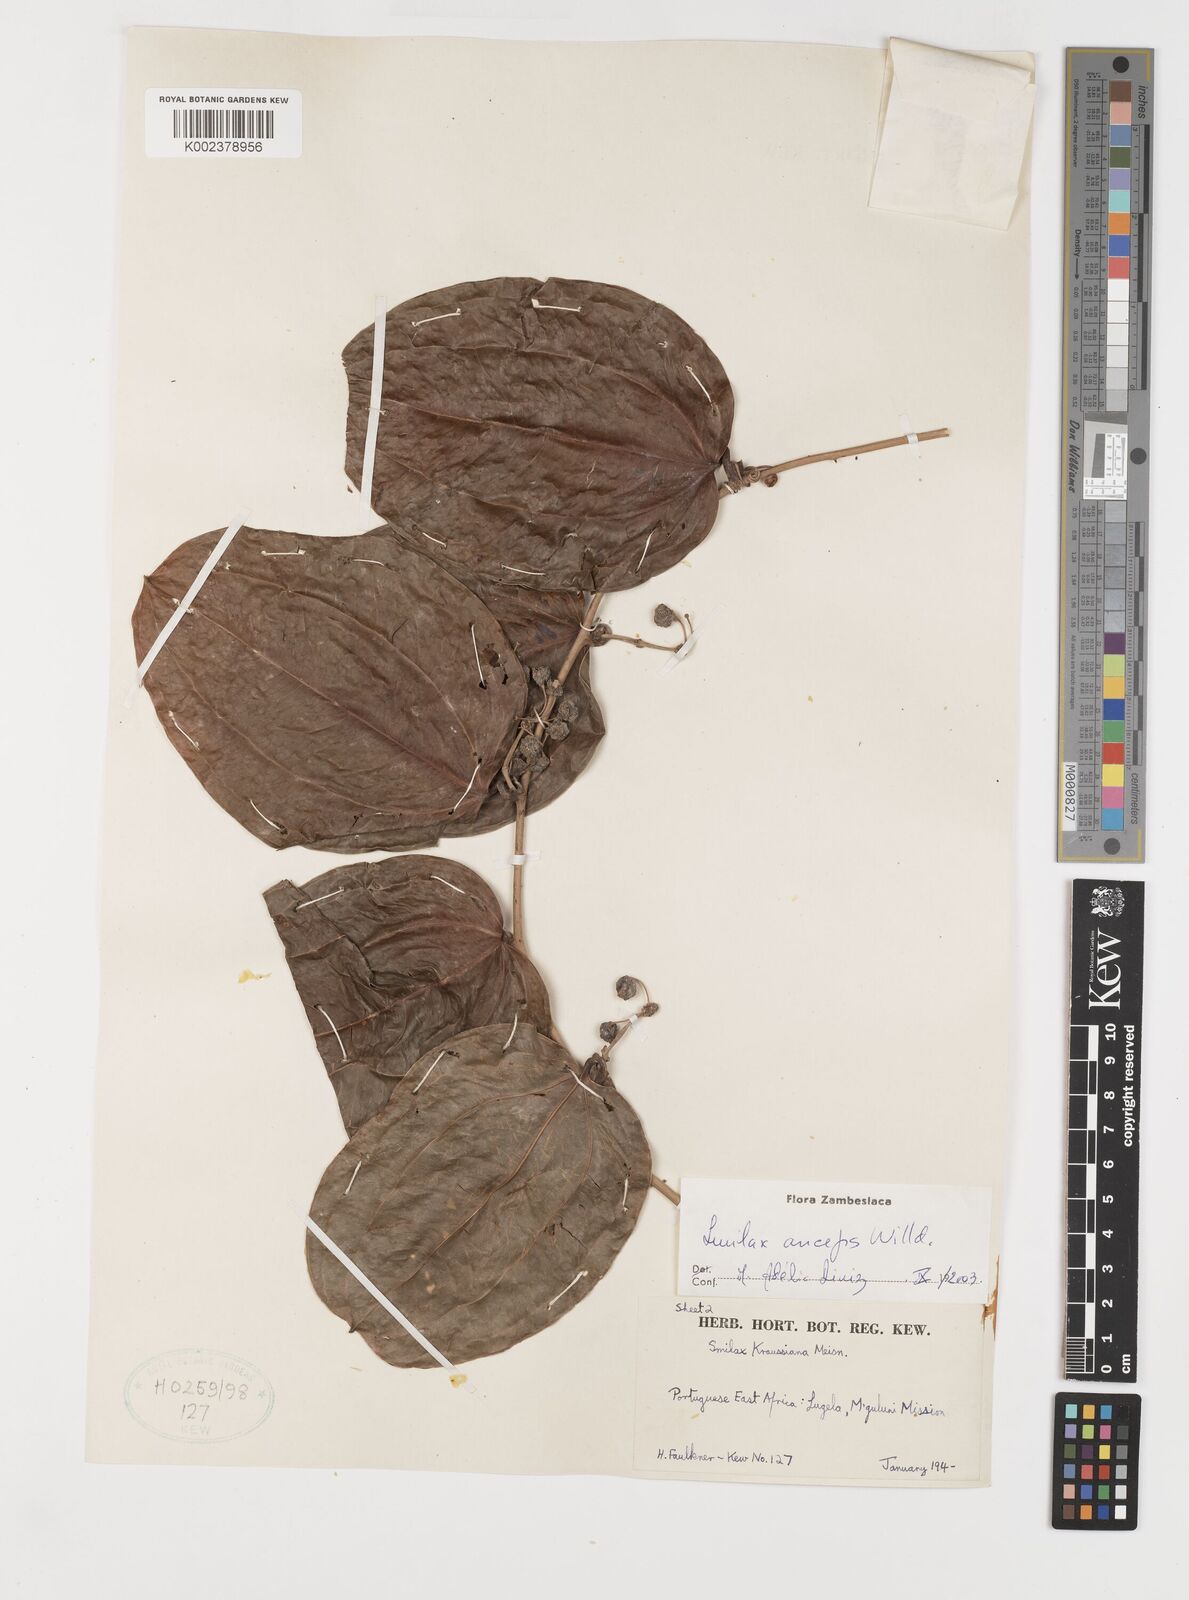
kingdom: Plantae
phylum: Tracheophyta
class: Liliopsida
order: Liliales
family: Smilacaceae
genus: Smilax
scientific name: Smilax anceps
